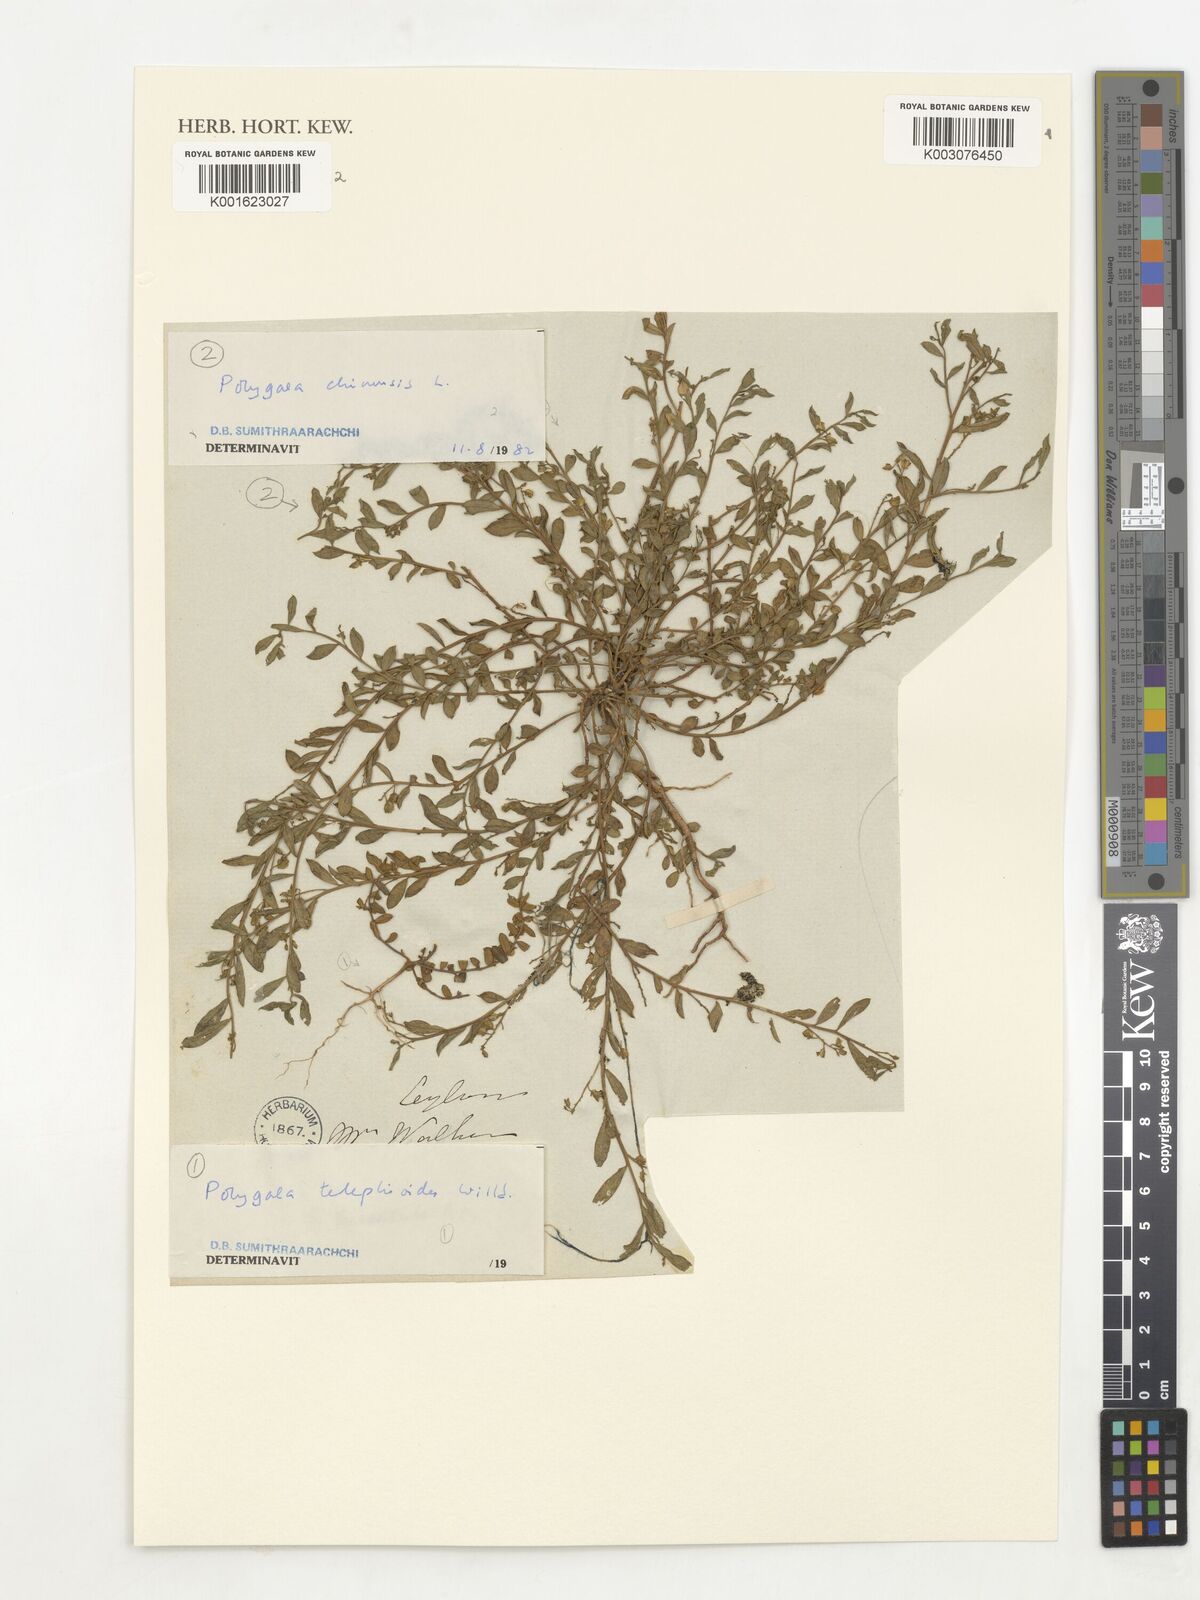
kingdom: Plantae
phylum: Tracheophyta
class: Magnoliopsida
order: Fabales
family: Polygalaceae
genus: Polygala
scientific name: Polygala supina
